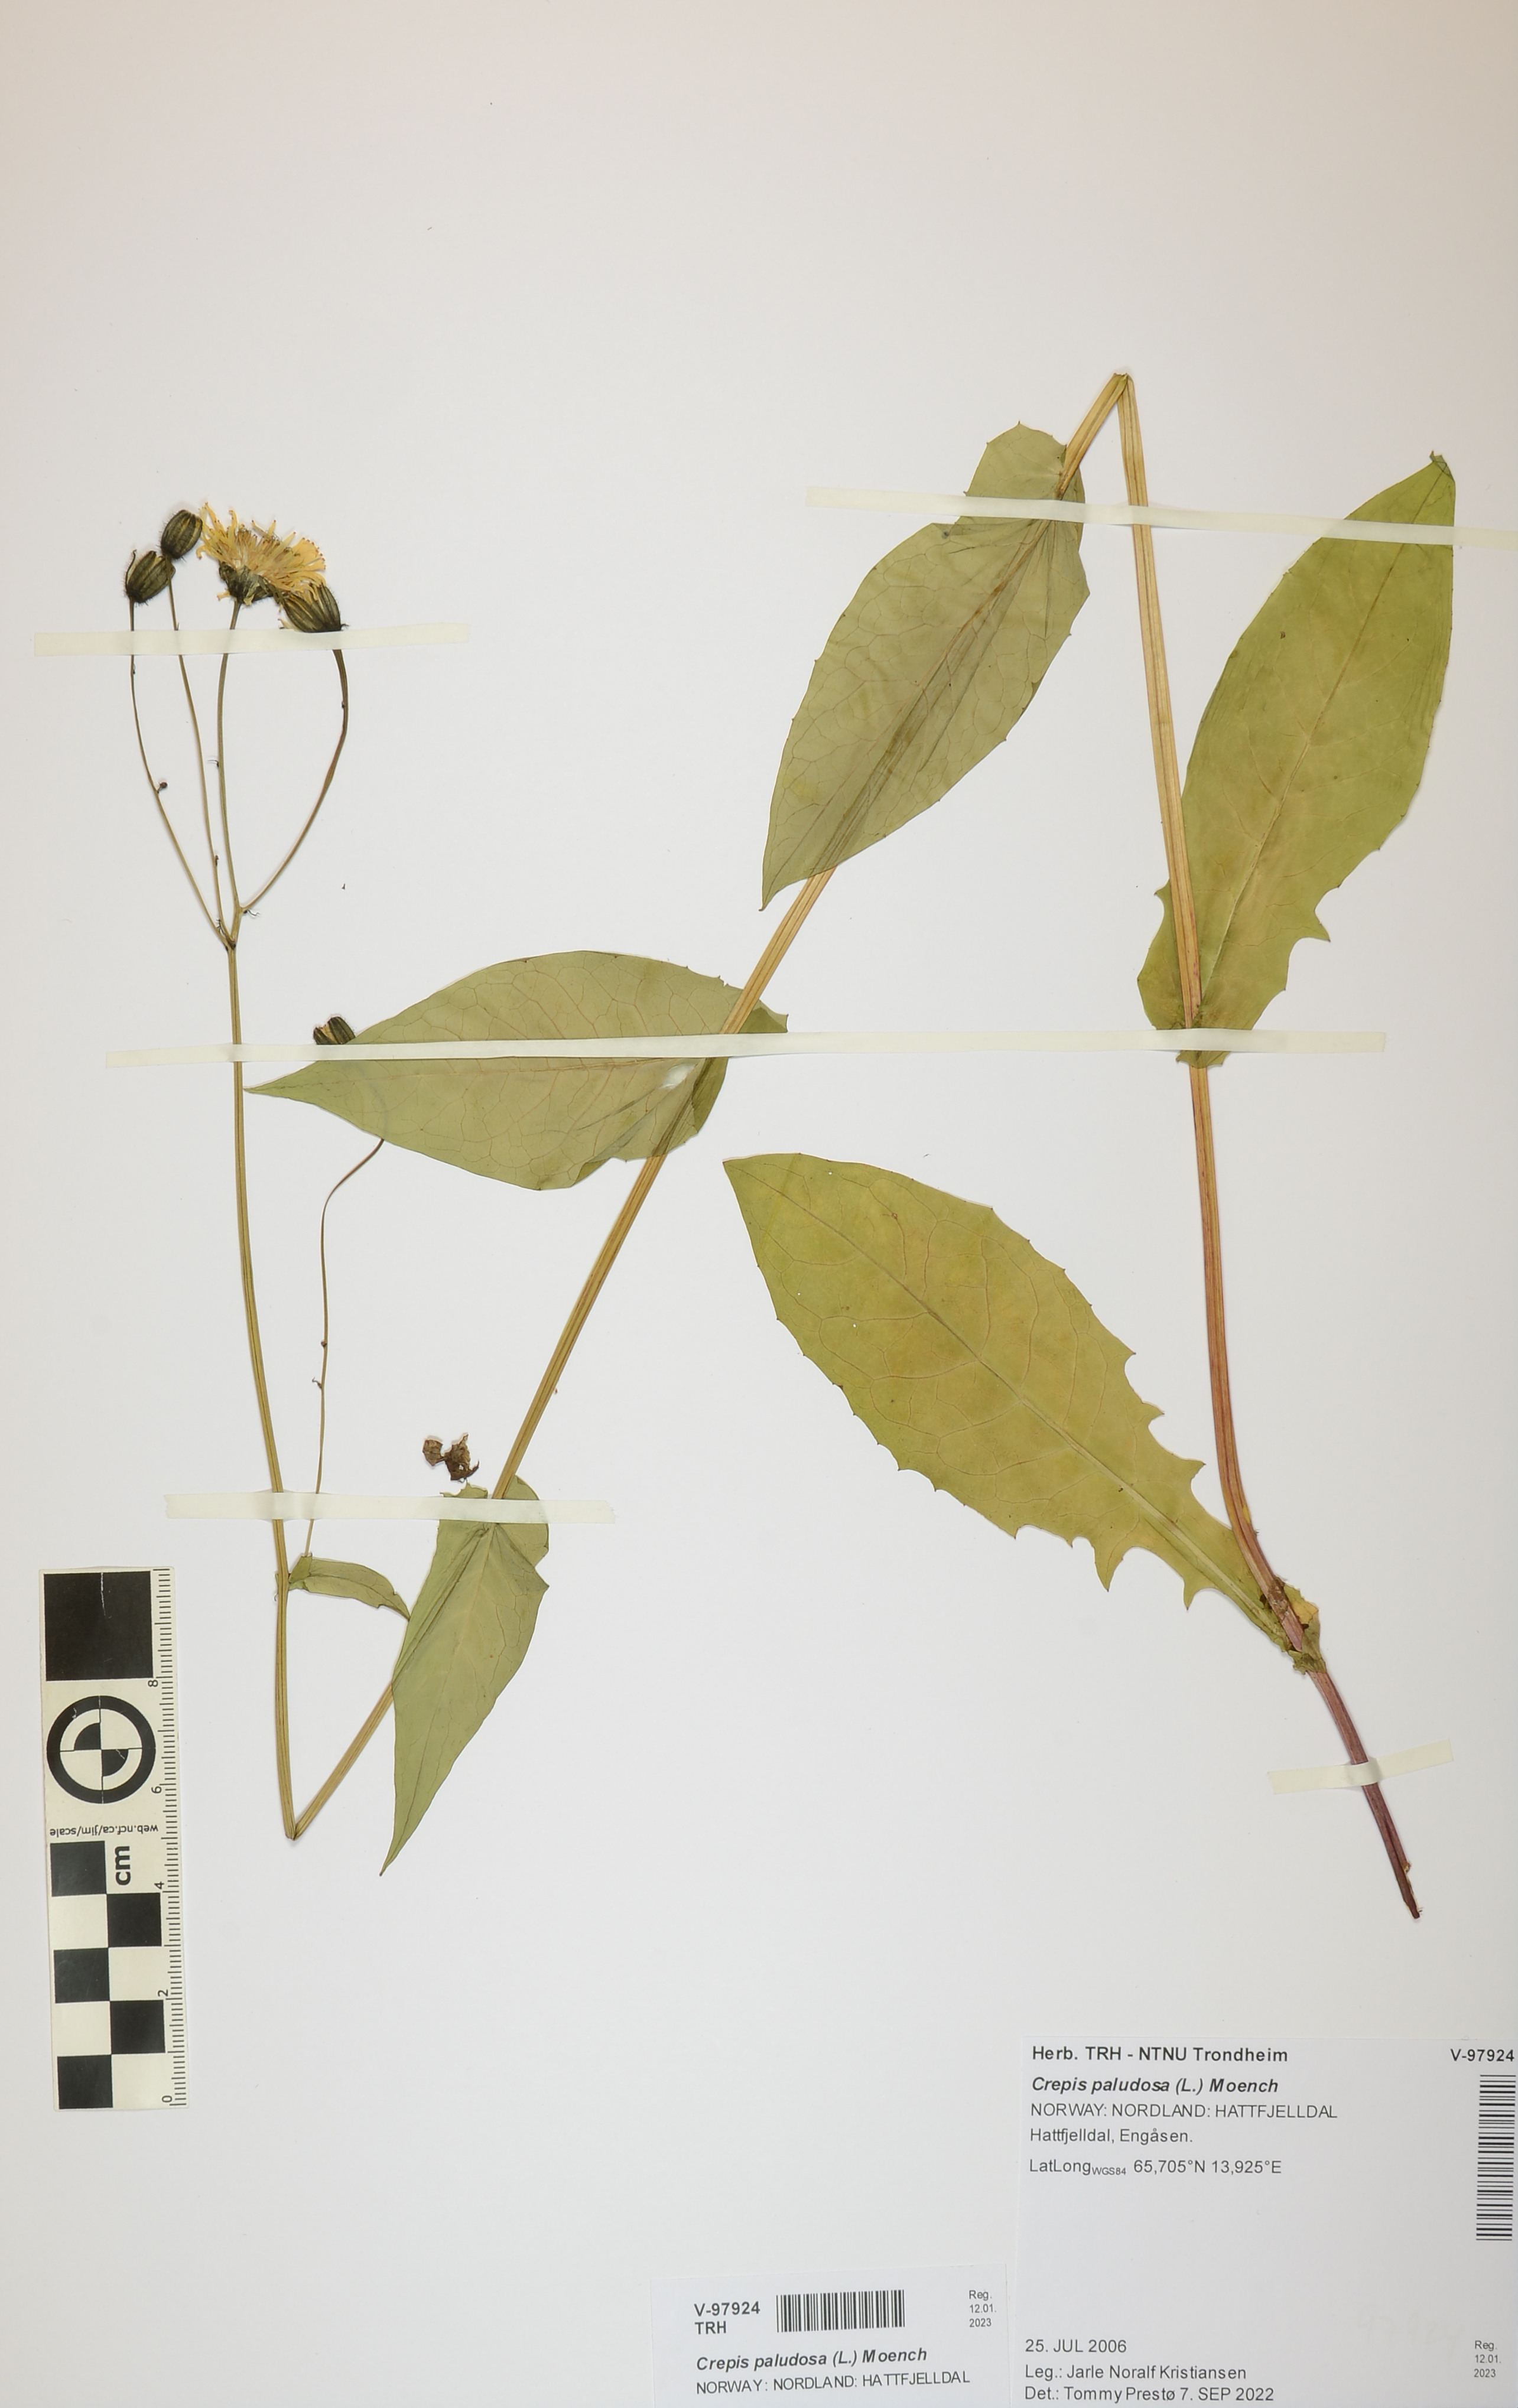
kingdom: Plantae
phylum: Tracheophyta
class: Magnoliopsida
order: Asterales
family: Asteraceae
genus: Crepis
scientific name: Crepis paludosa
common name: Marsh hawk's-beard
